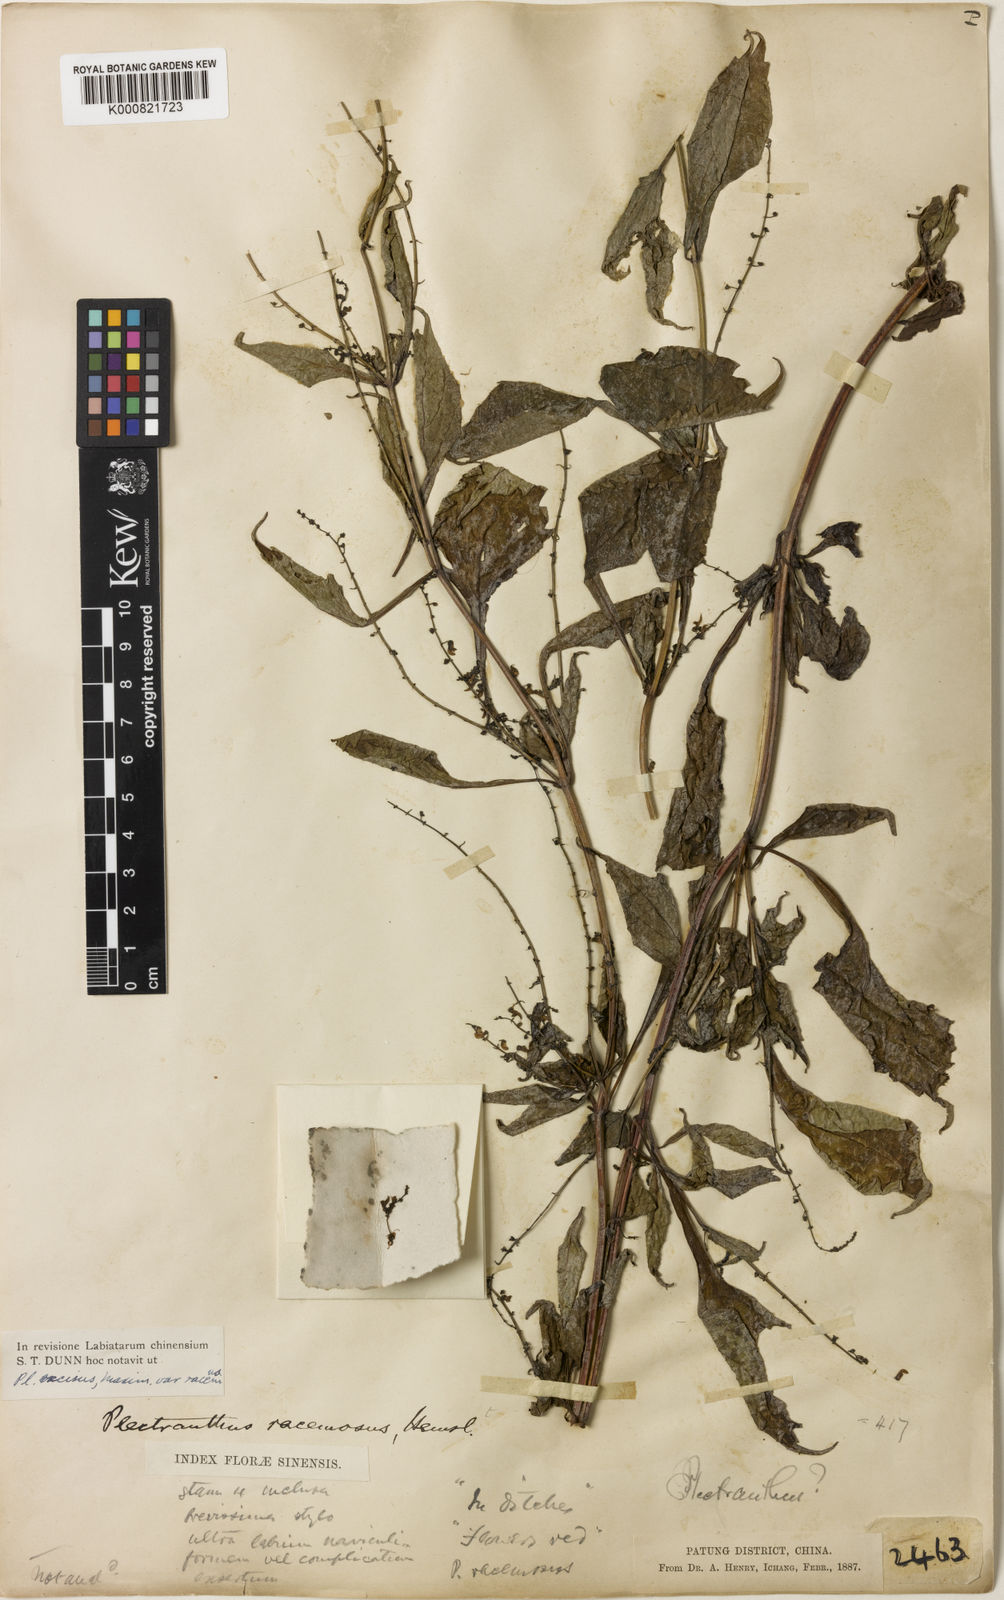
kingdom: Plantae
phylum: Tracheophyta
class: Magnoliopsida
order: Lamiales
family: Lamiaceae
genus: Isodon
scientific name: Isodon racemosus
